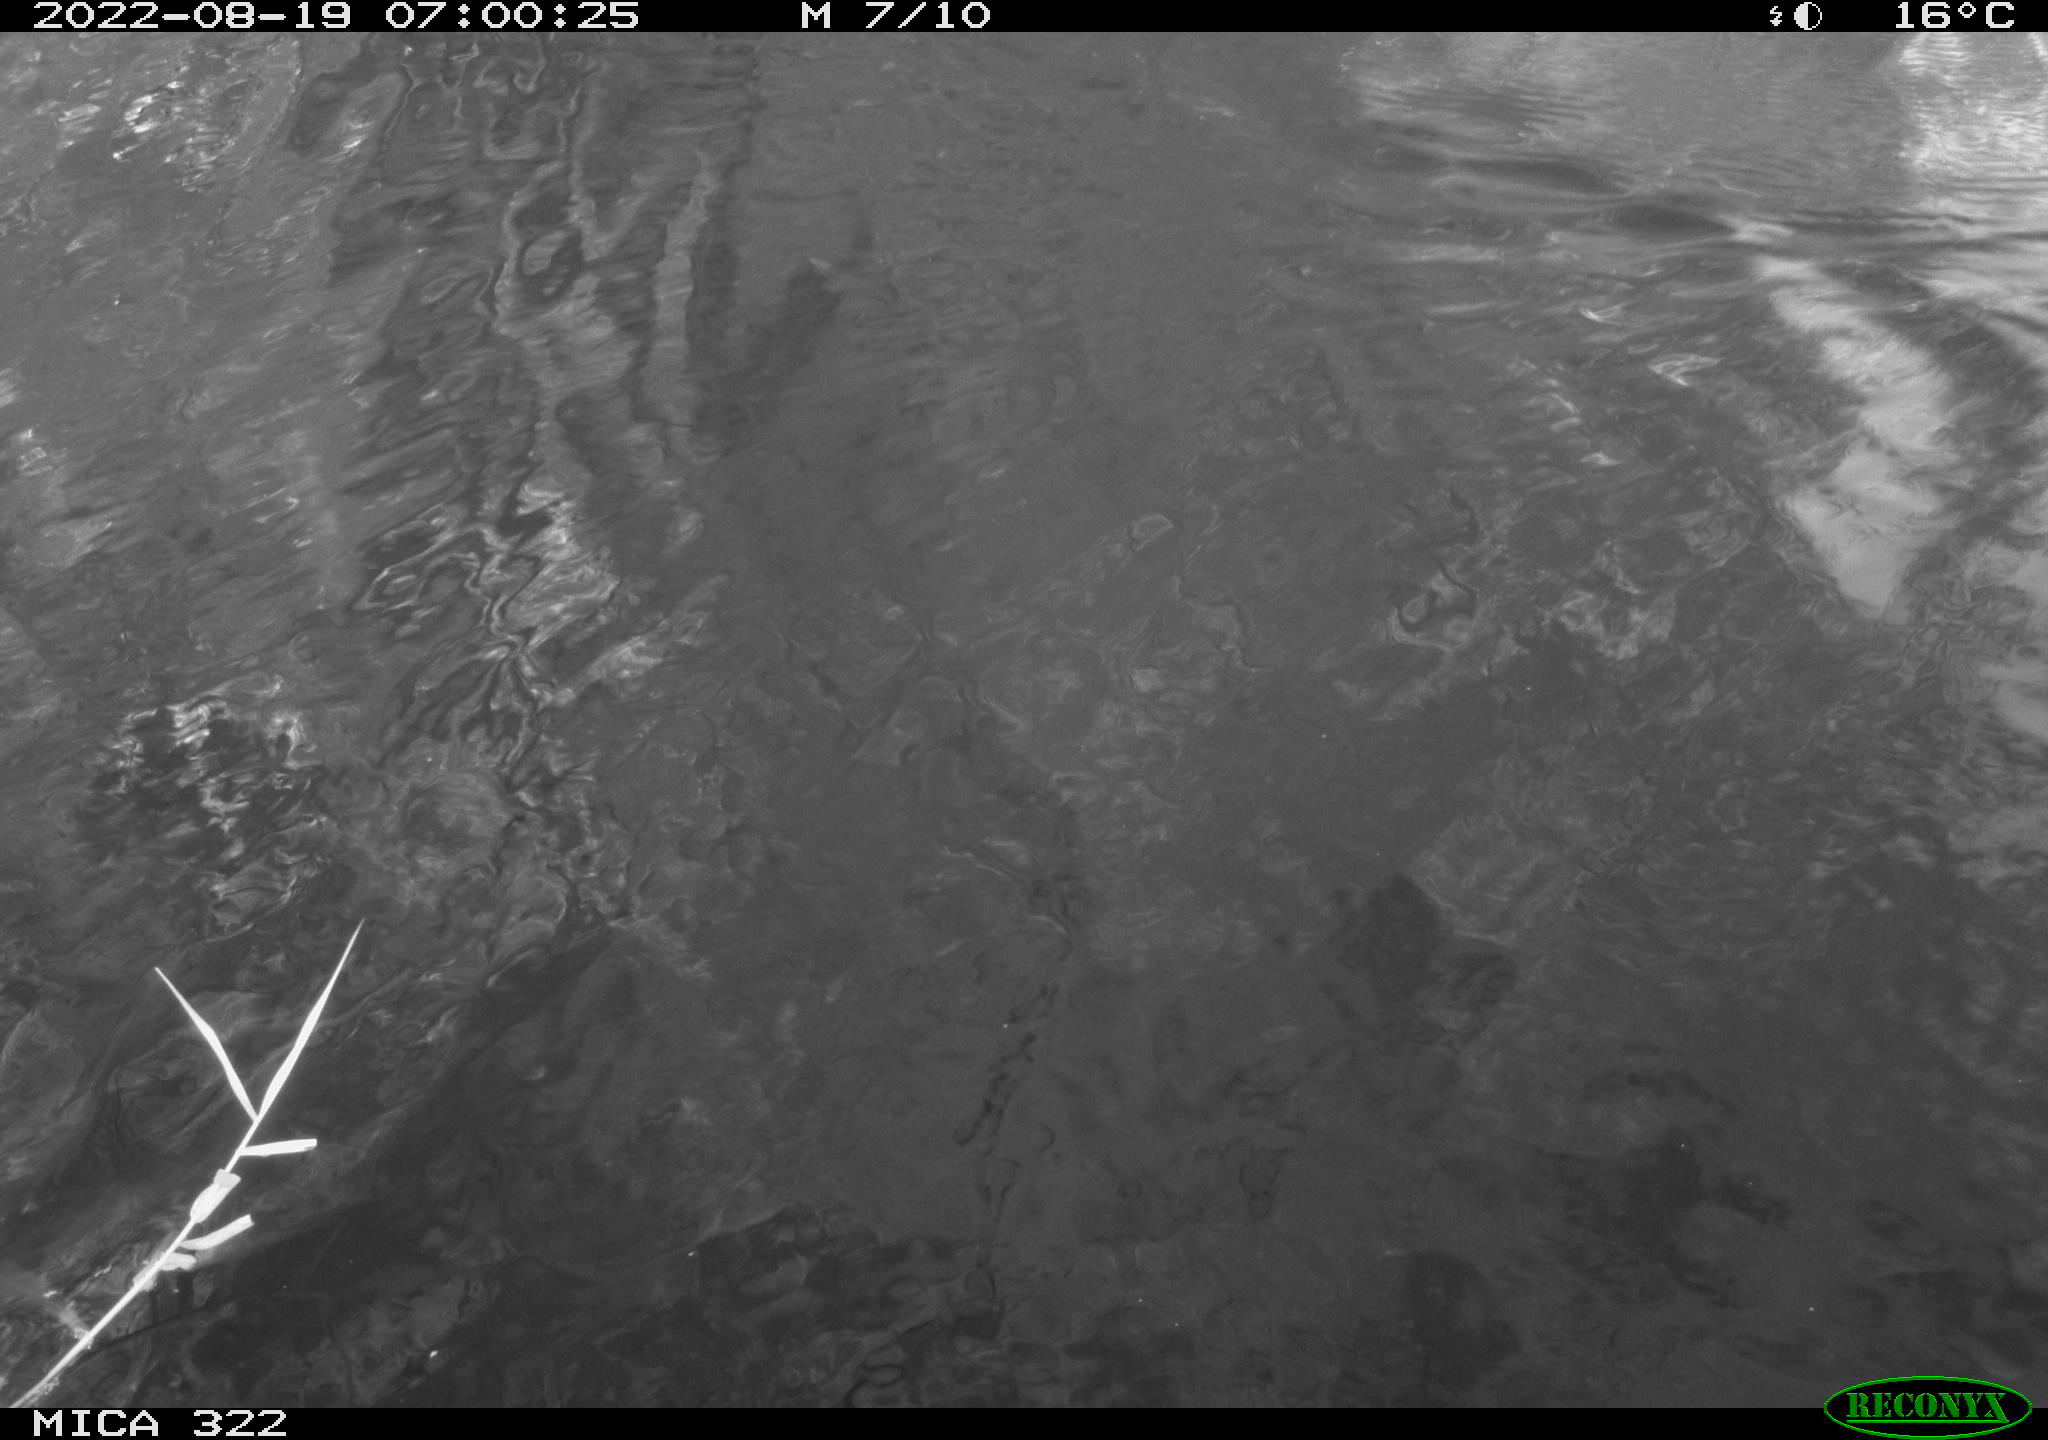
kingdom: Animalia
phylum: Chordata
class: Aves
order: Gruiformes
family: Rallidae
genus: Gallinula
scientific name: Gallinula chloropus
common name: Common moorhen
